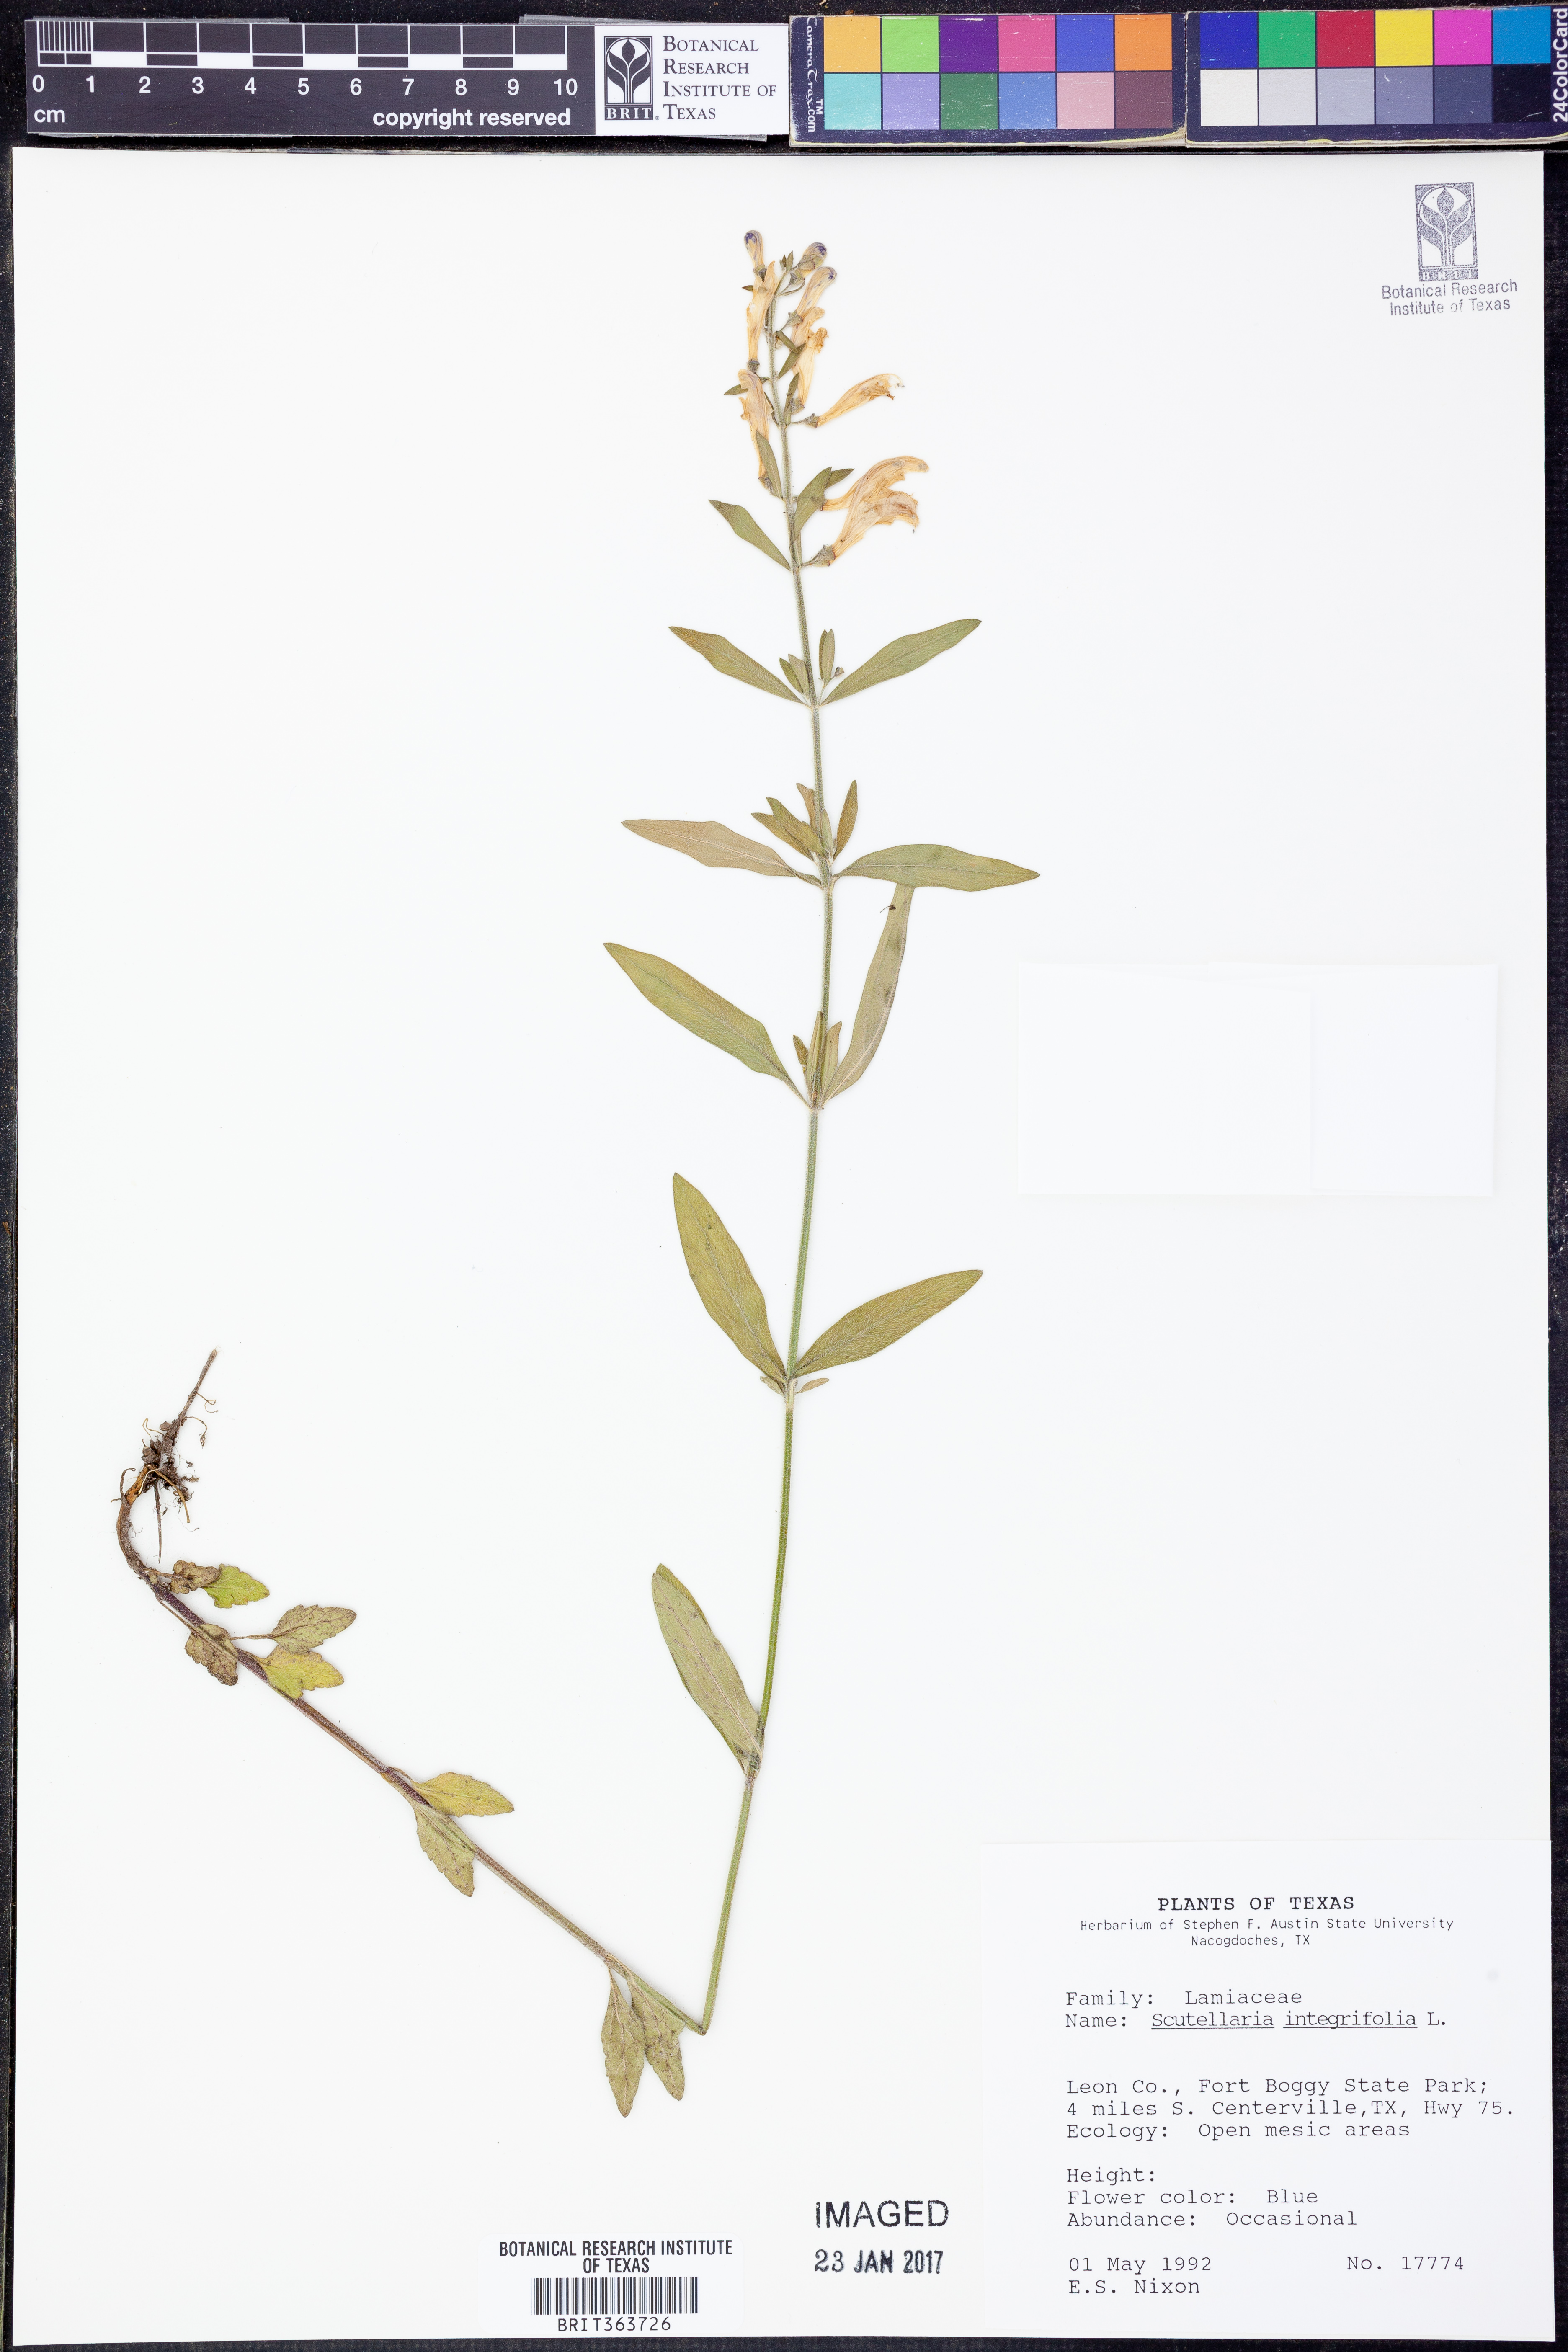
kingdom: Plantae
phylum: Tracheophyta
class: Magnoliopsida
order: Lamiales
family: Lamiaceae
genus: Scutellaria
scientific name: Scutellaria integrifolia
